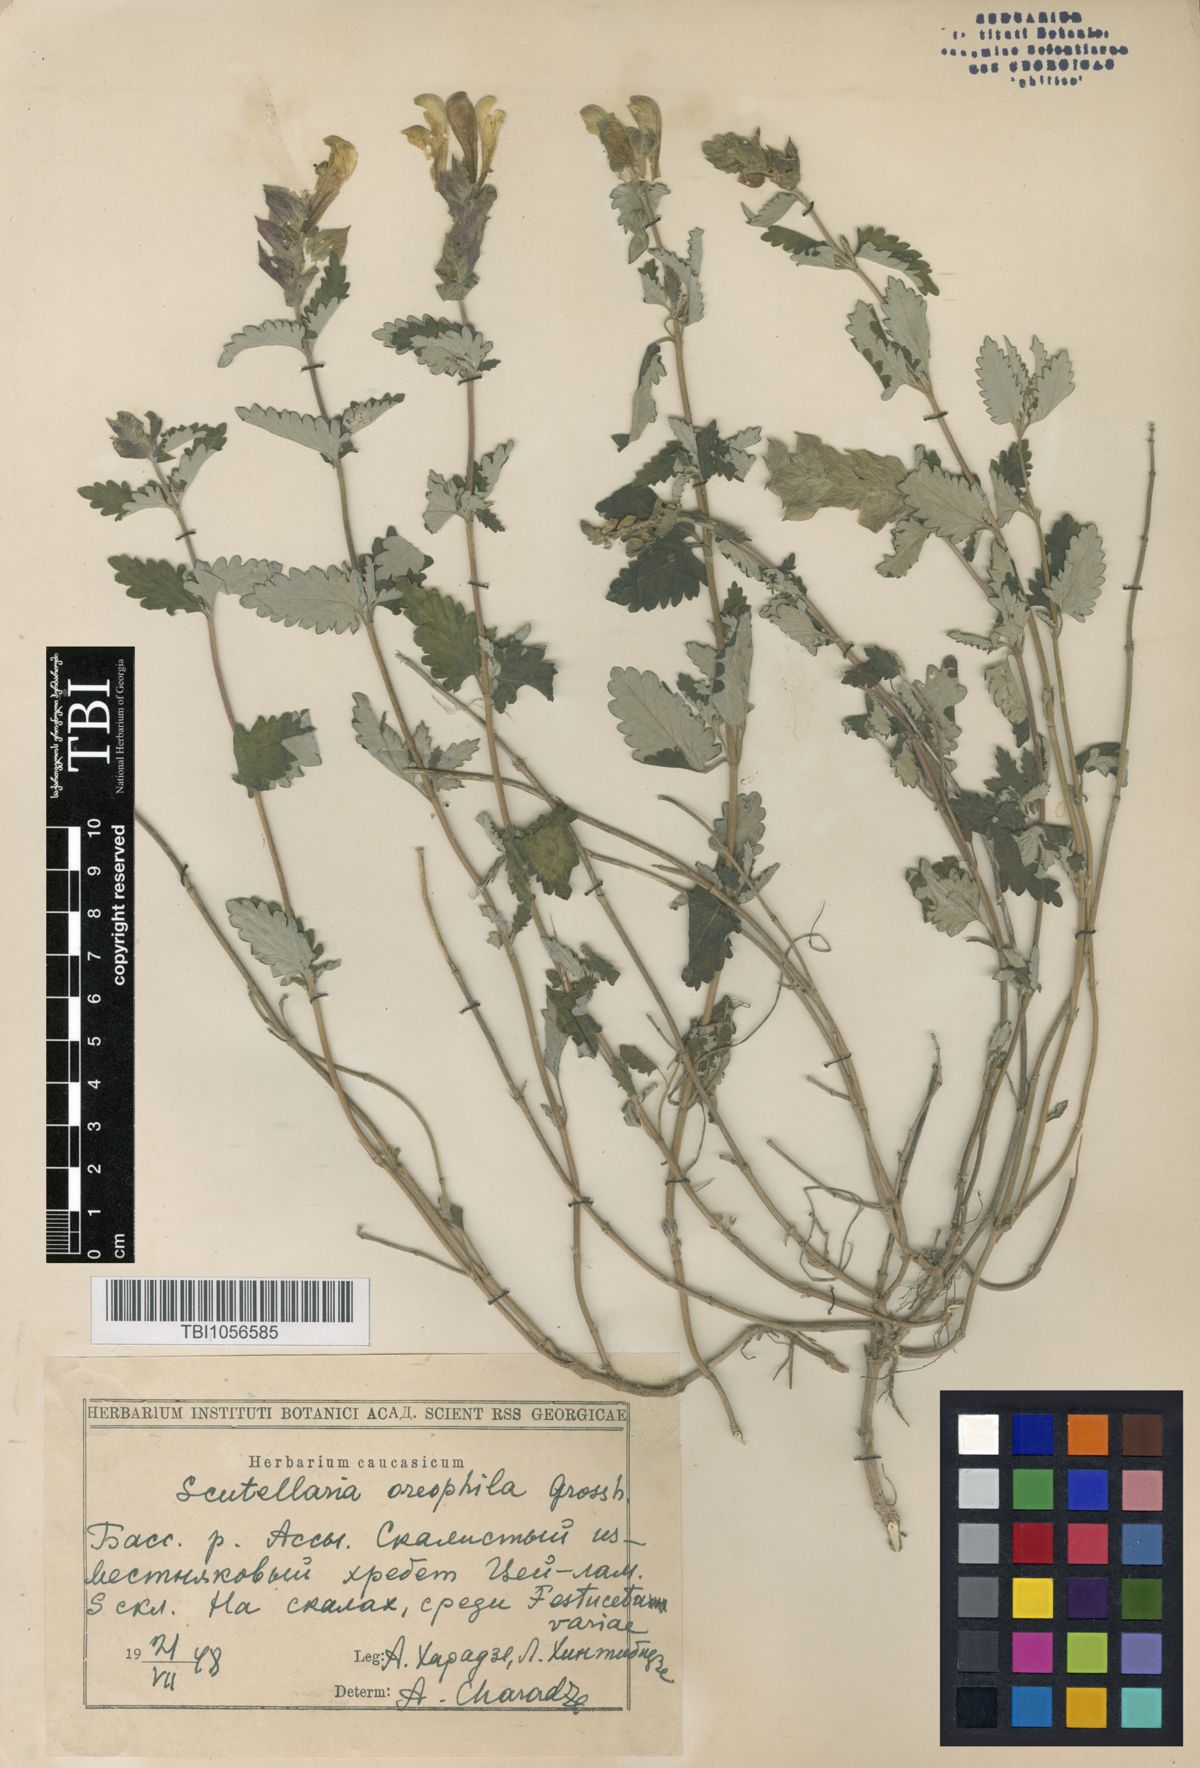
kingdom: Plantae
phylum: Tracheophyta
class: Magnoliopsida
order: Lamiales
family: Lamiaceae
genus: Scutellaria
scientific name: Scutellaria oreophila
